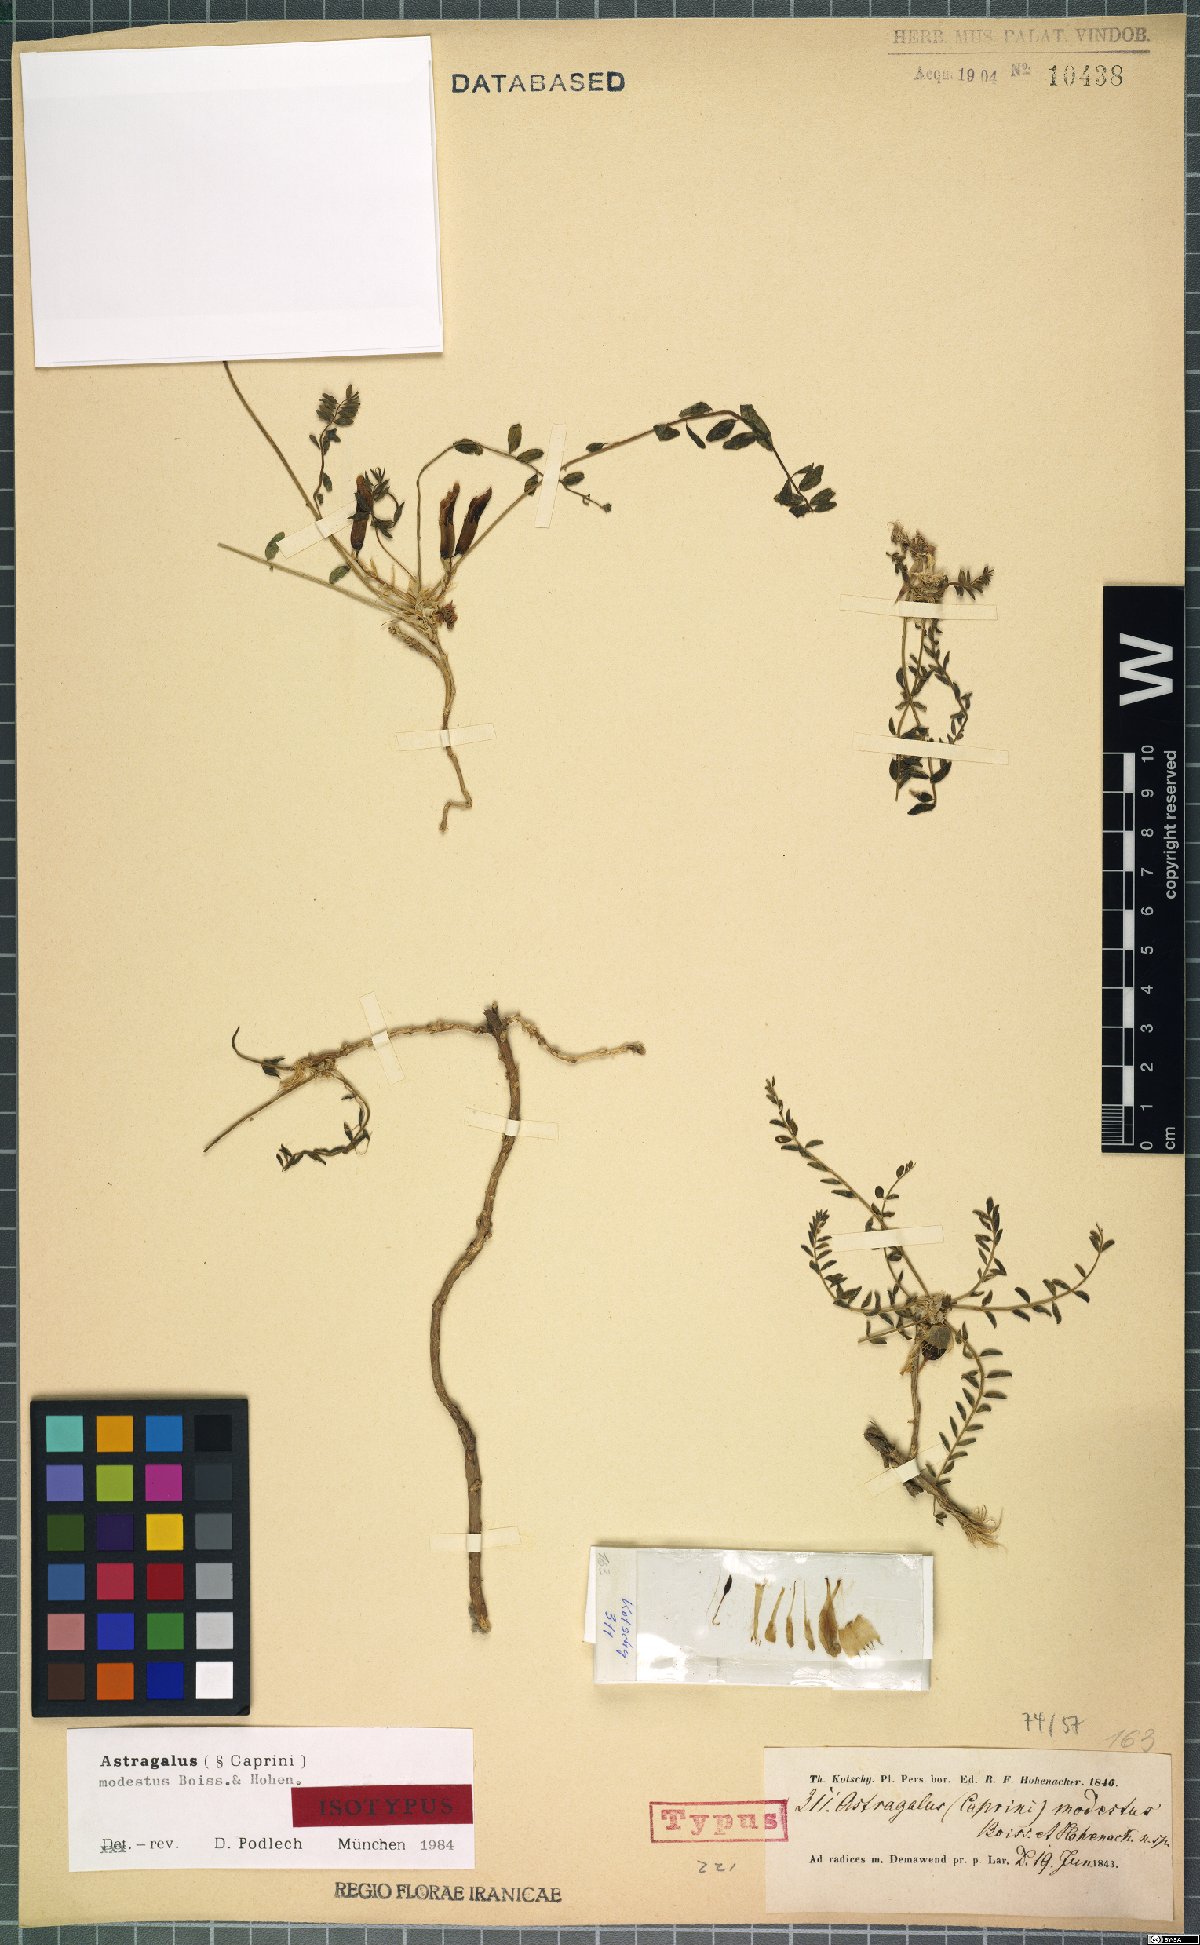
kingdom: Plantae
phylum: Tracheophyta
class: Magnoliopsida
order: Fabales
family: Fabaceae
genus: Astragalus
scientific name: Astragalus modestus
